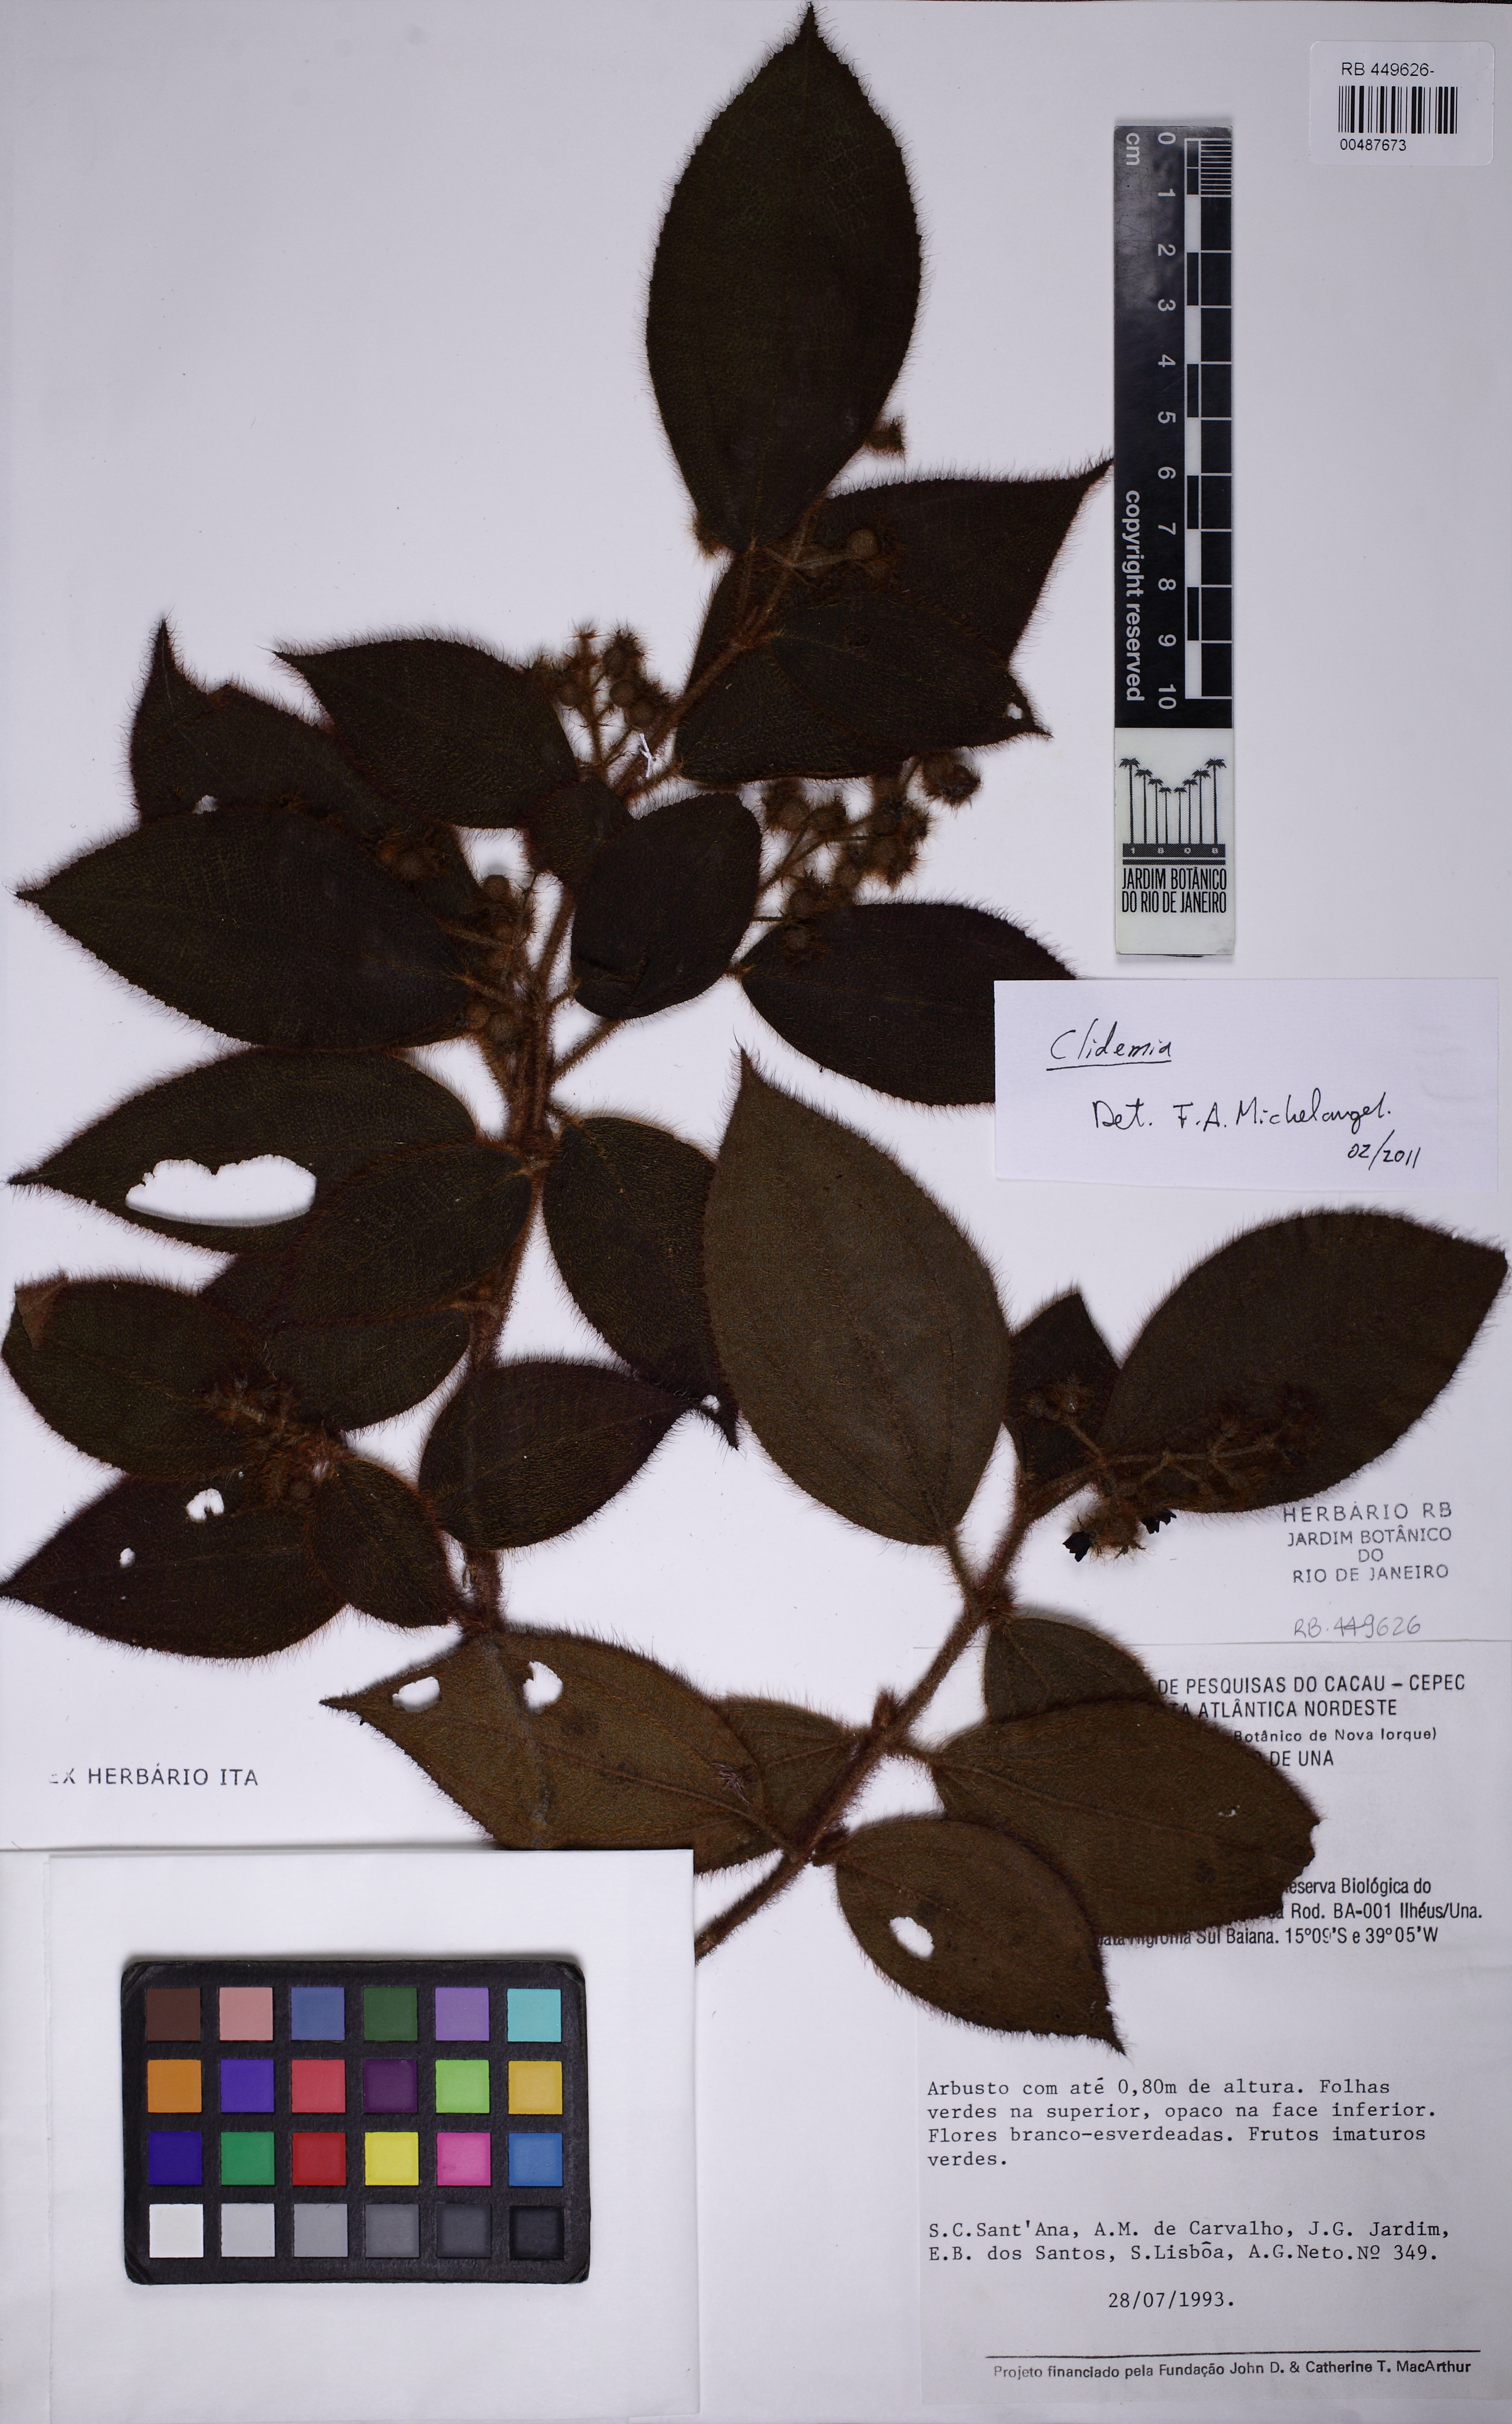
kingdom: Plantae
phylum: Tracheophyta
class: Magnoliopsida
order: Myrtales
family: Melastomataceae
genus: Miconia
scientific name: Miconia dependens
